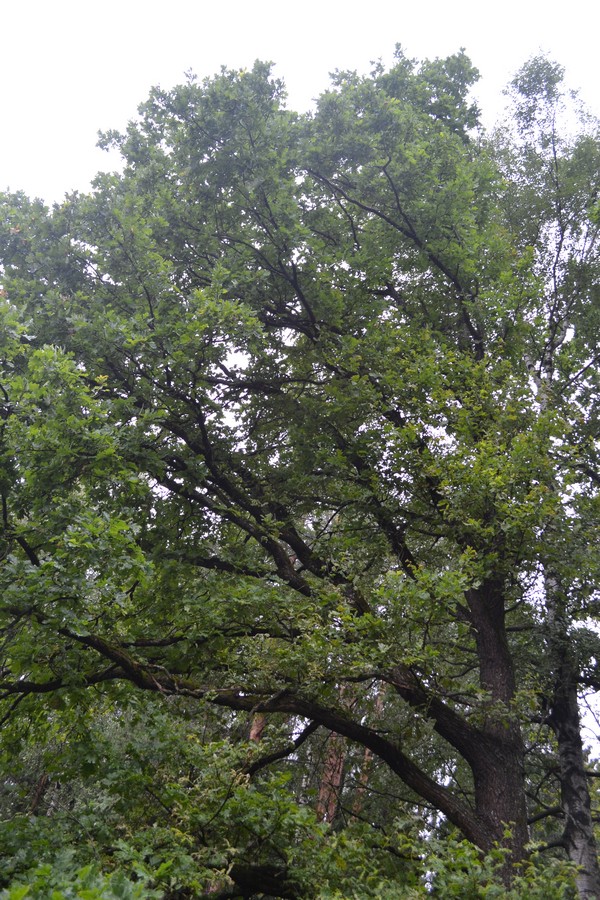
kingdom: Plantae
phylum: Tracheophyta
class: Magnoliopsida
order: Fagales
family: Fagaceae
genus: Quercus
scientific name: Quercus robur
